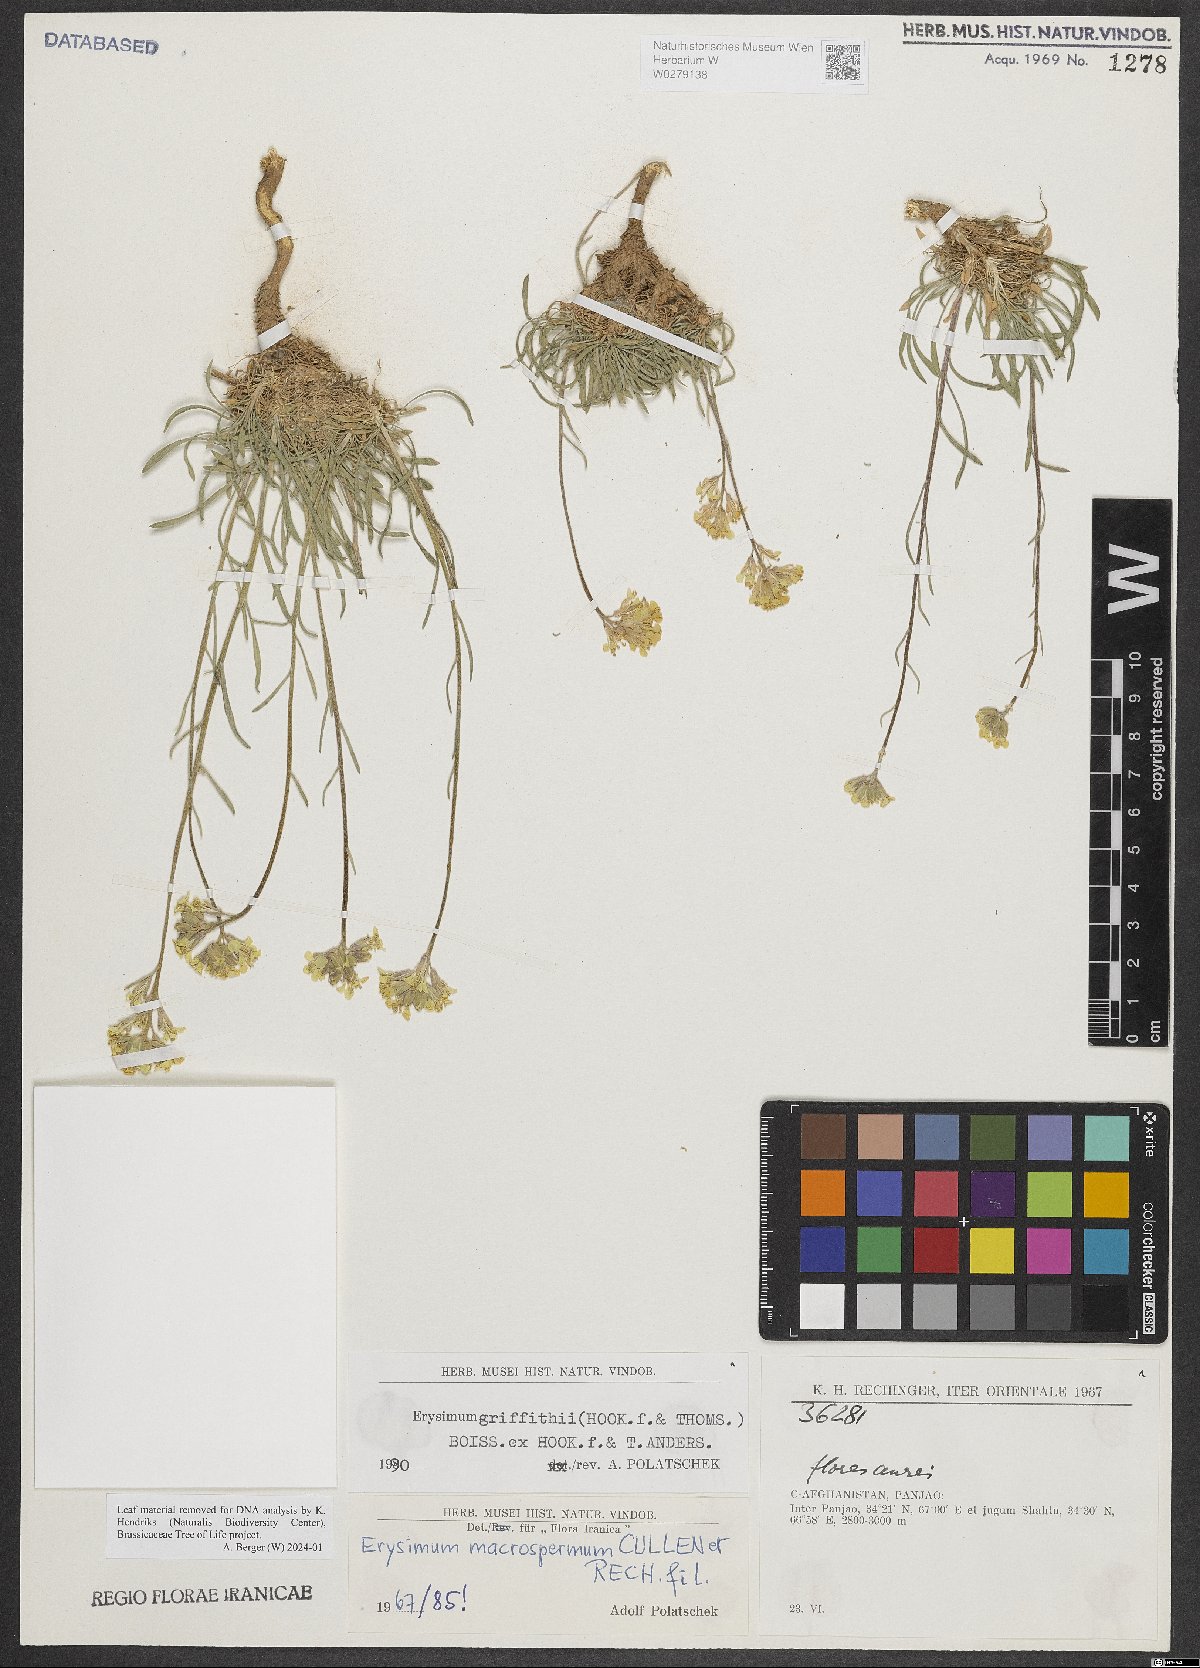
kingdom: Plantae
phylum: Tracheophyta
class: Magnoliopsida
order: Brassicales
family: Brassicaceae
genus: Erysimum
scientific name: Erysimum griffithii
